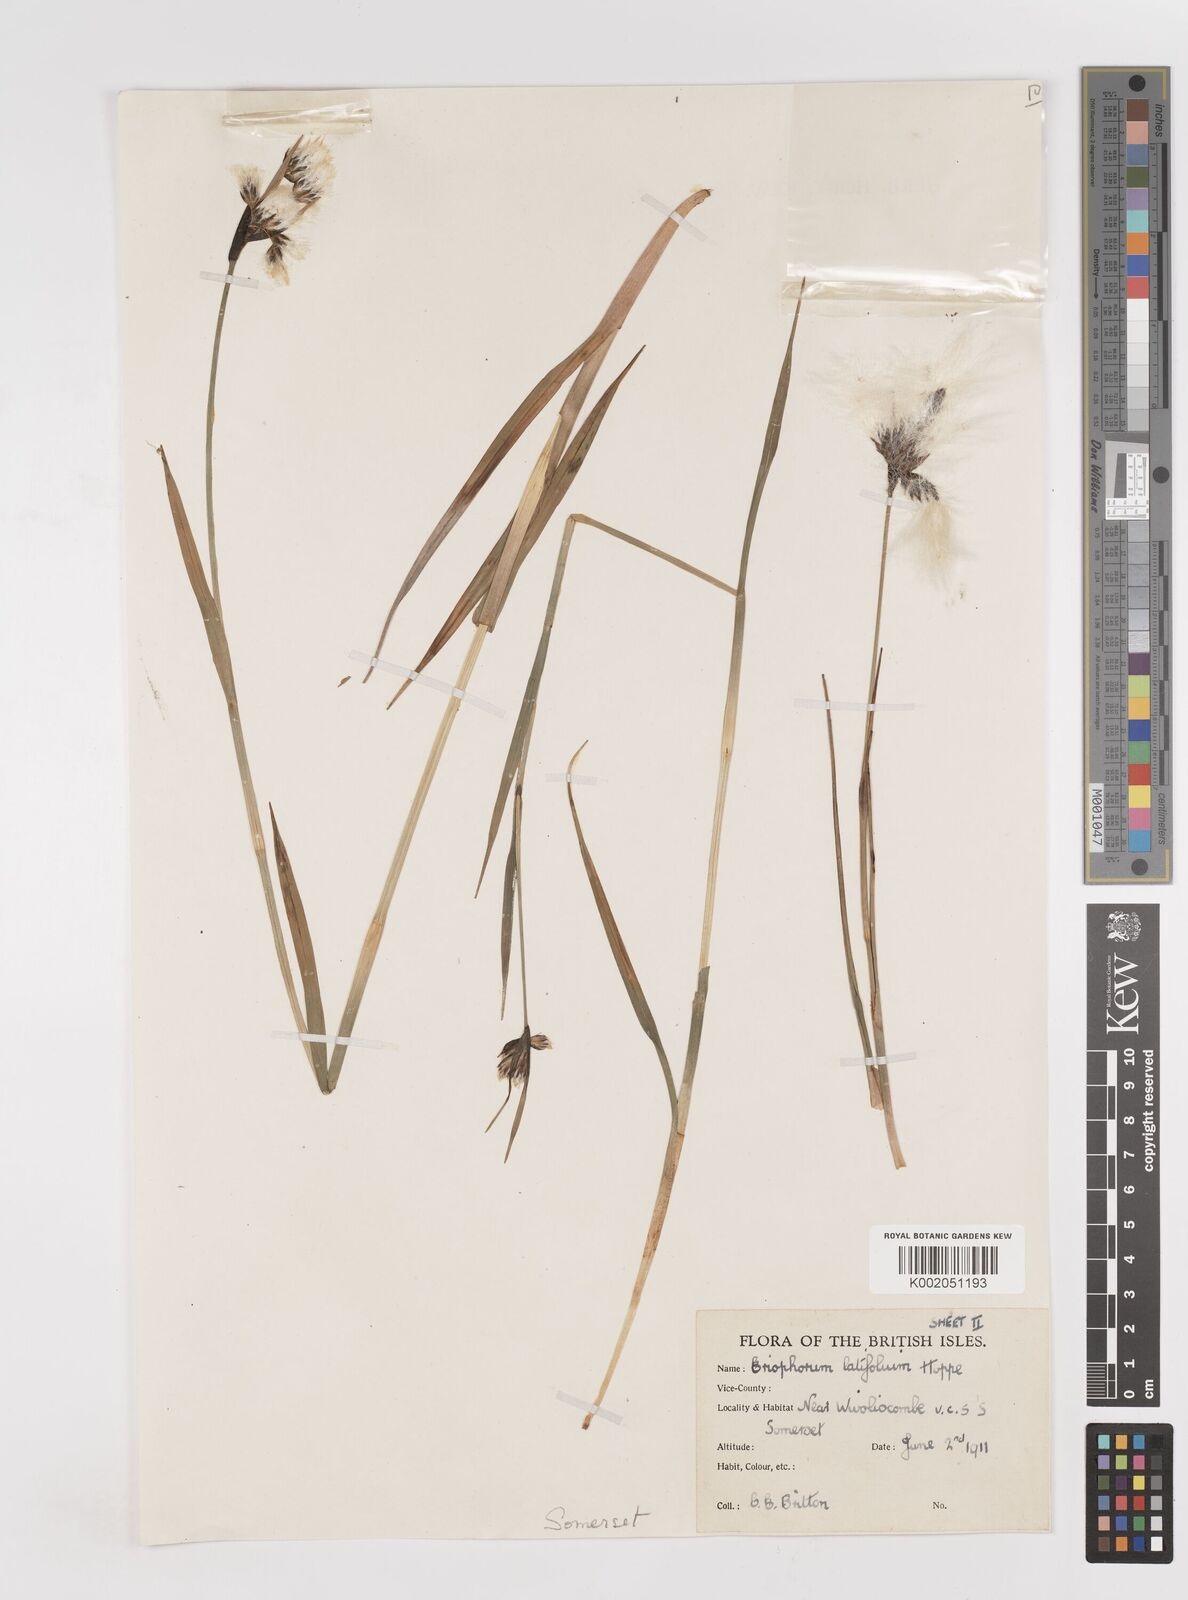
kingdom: Plantae
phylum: Tracheophyta
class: Liliopsida
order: Poales
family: Cyperaceae
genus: Eriophorum
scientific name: Eriophorum latifolium
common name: Broad-leaved cottongrass
